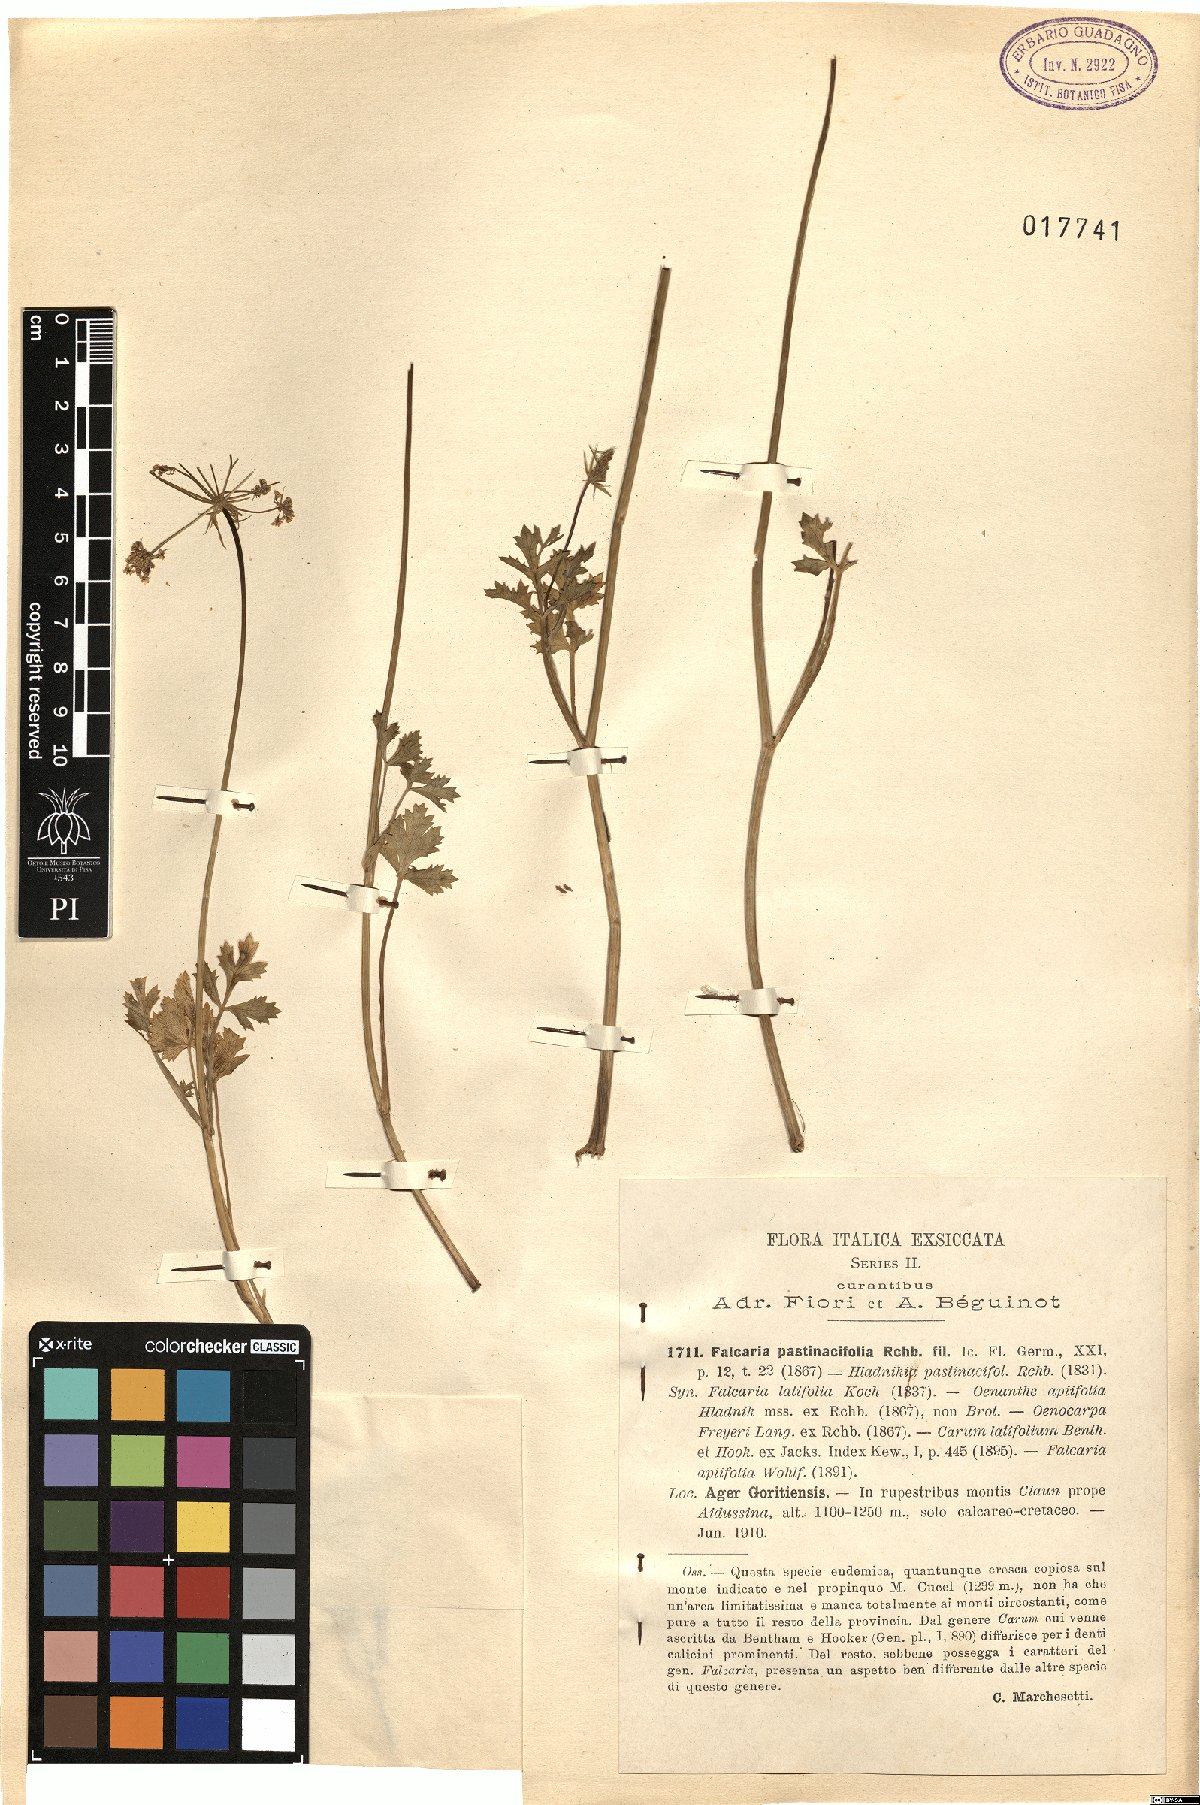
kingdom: Plantae
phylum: Tracheophyta
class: Magnoliopsida
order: Apiales
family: Apiaceae
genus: Hladnikia
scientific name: Hladnikia pastinacifolia
